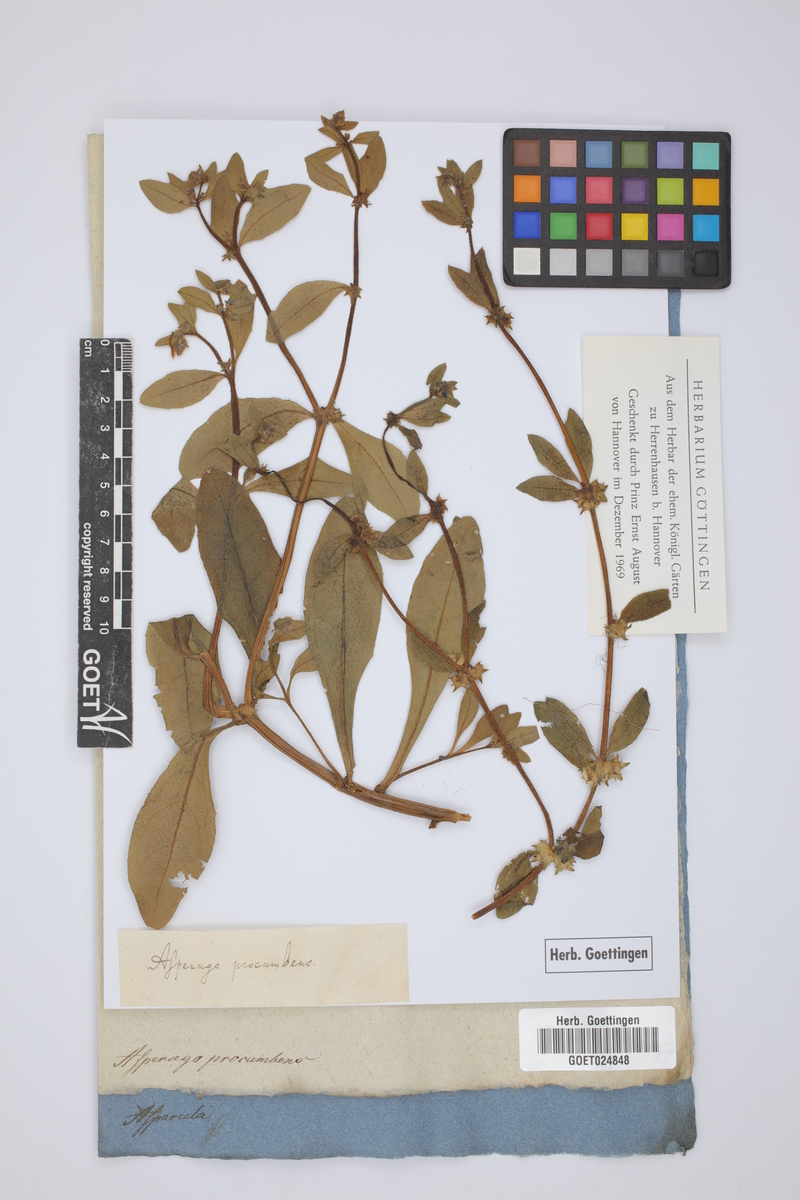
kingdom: Plantae
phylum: Tracheophyta
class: Magnoliopsida
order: Boraginales
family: Boraginaceae
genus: Asperugo
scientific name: Asperugo procumbens
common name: Madwort
